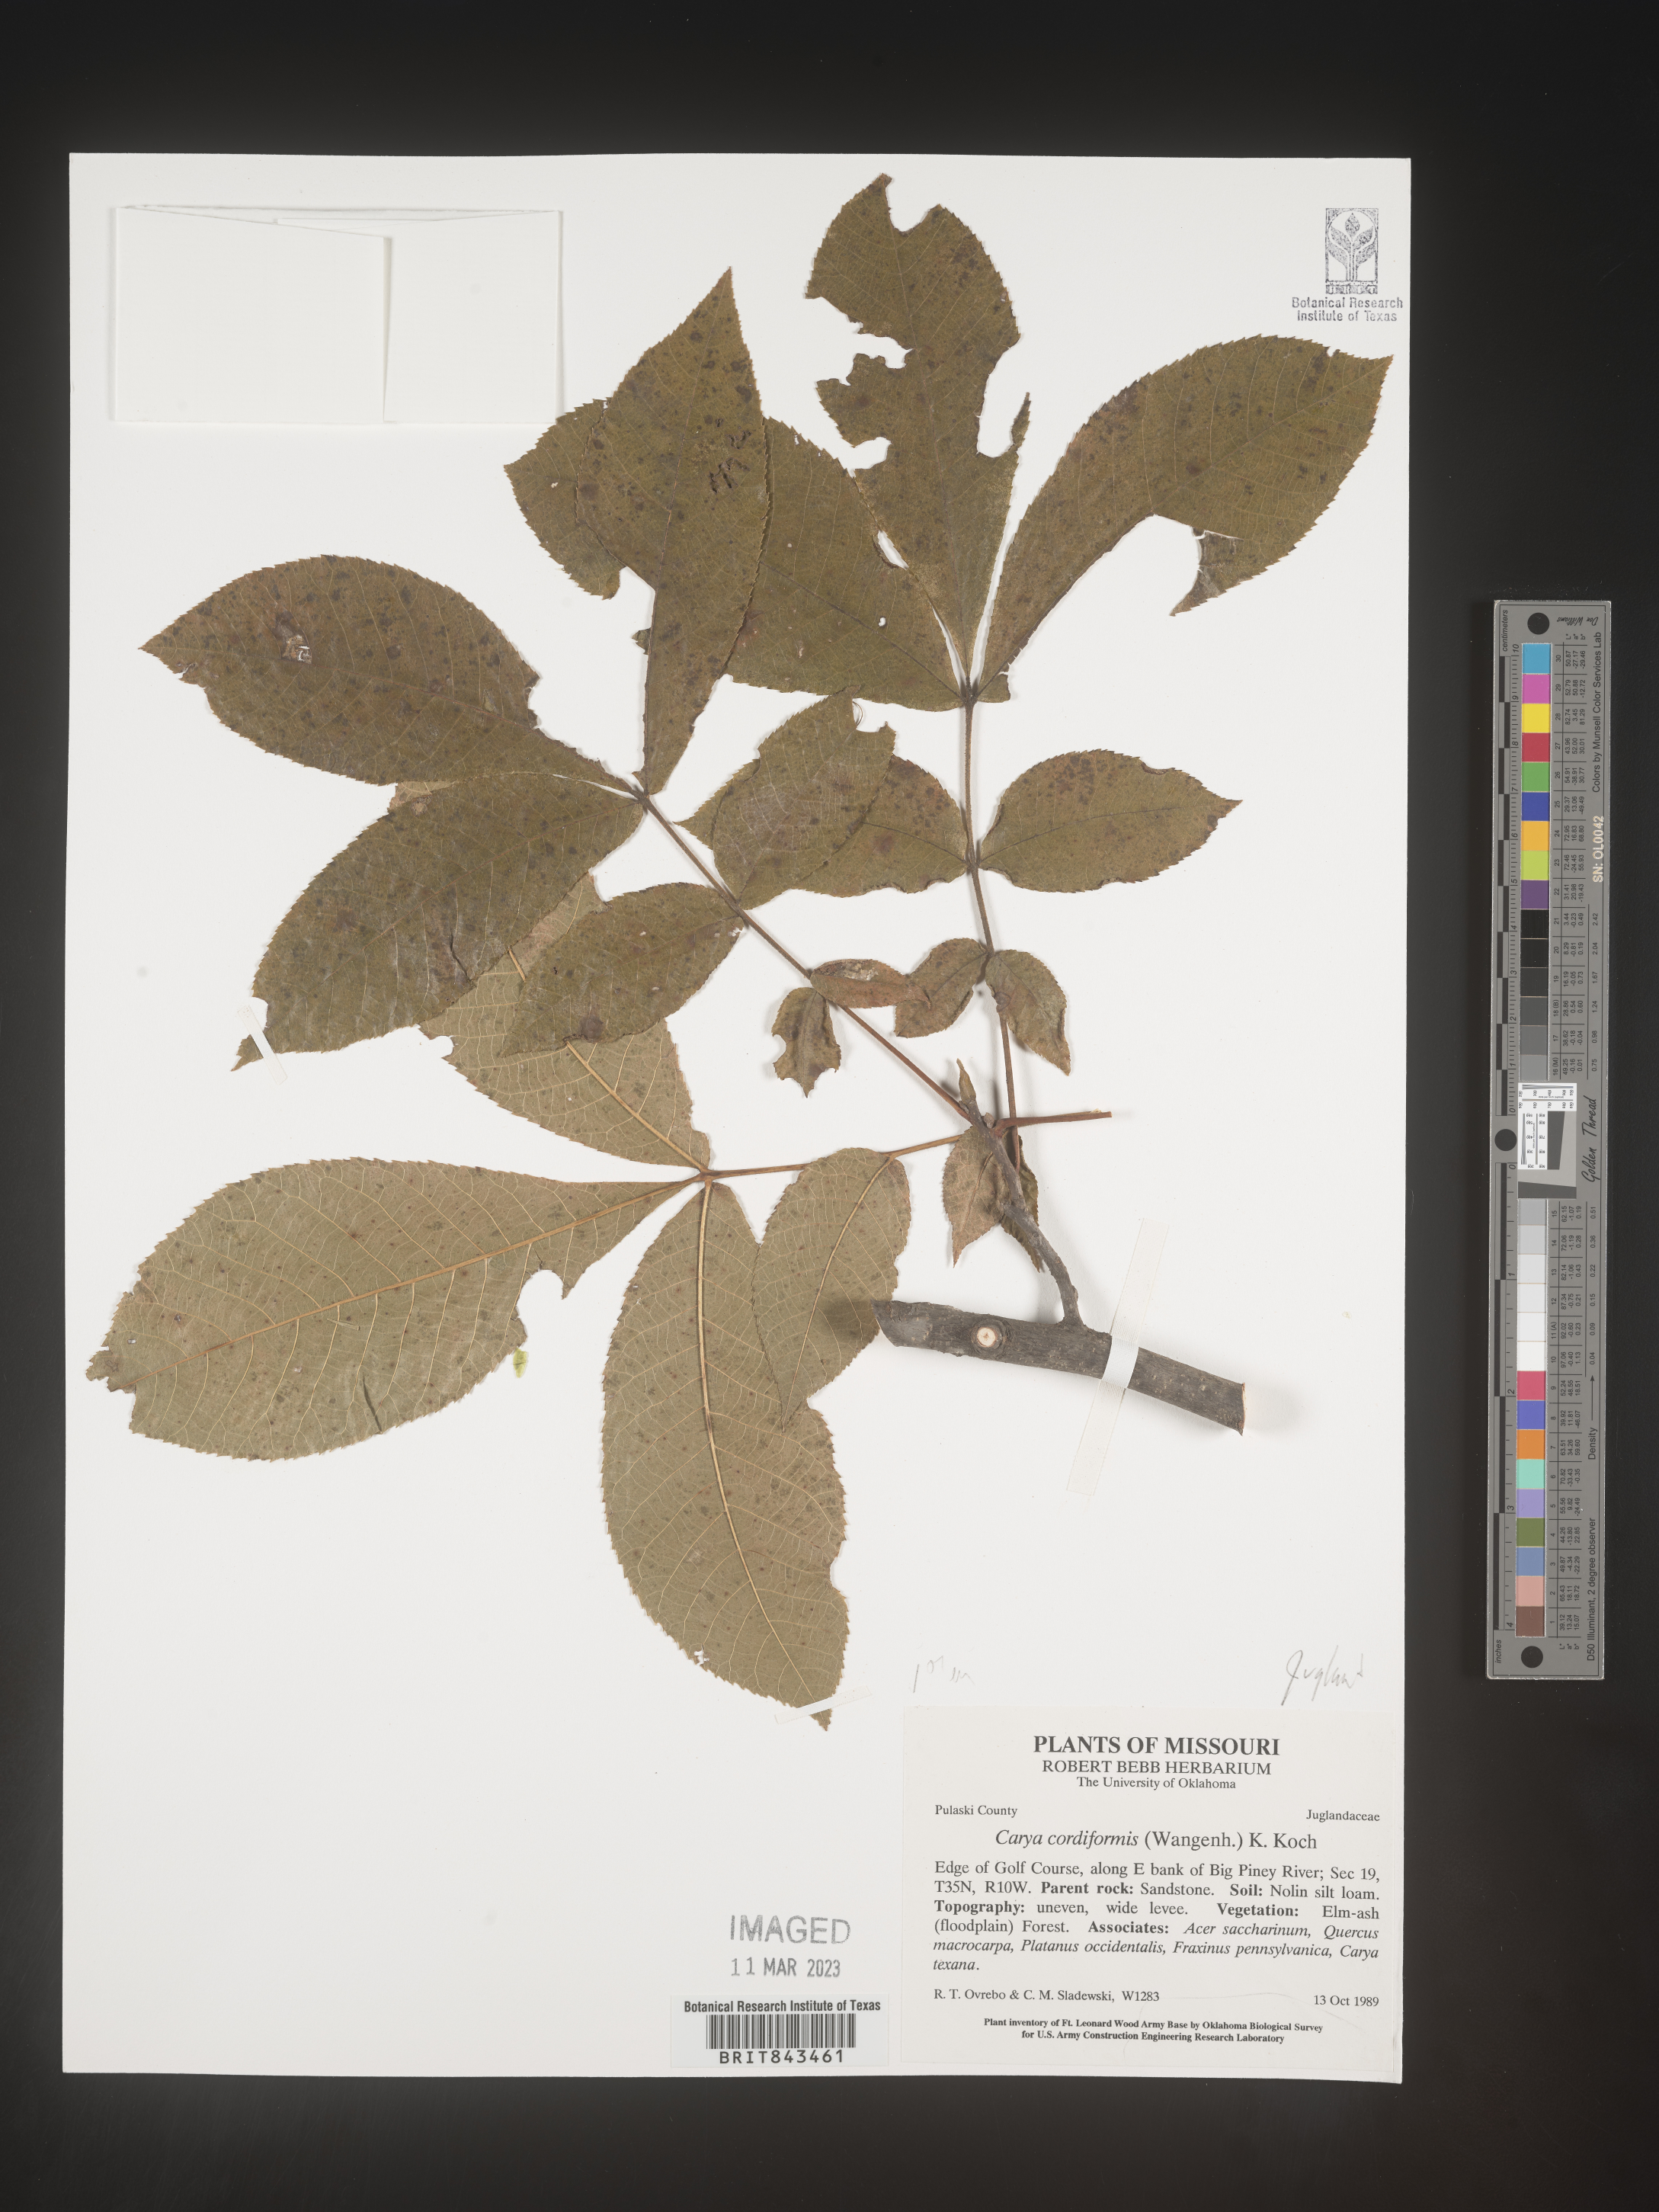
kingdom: Plantae
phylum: Tracheophyta
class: Magnoliopsida
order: Fagales
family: Juglandaceae
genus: Carya
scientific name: Carya cordiformis
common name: Bitternut hickory
